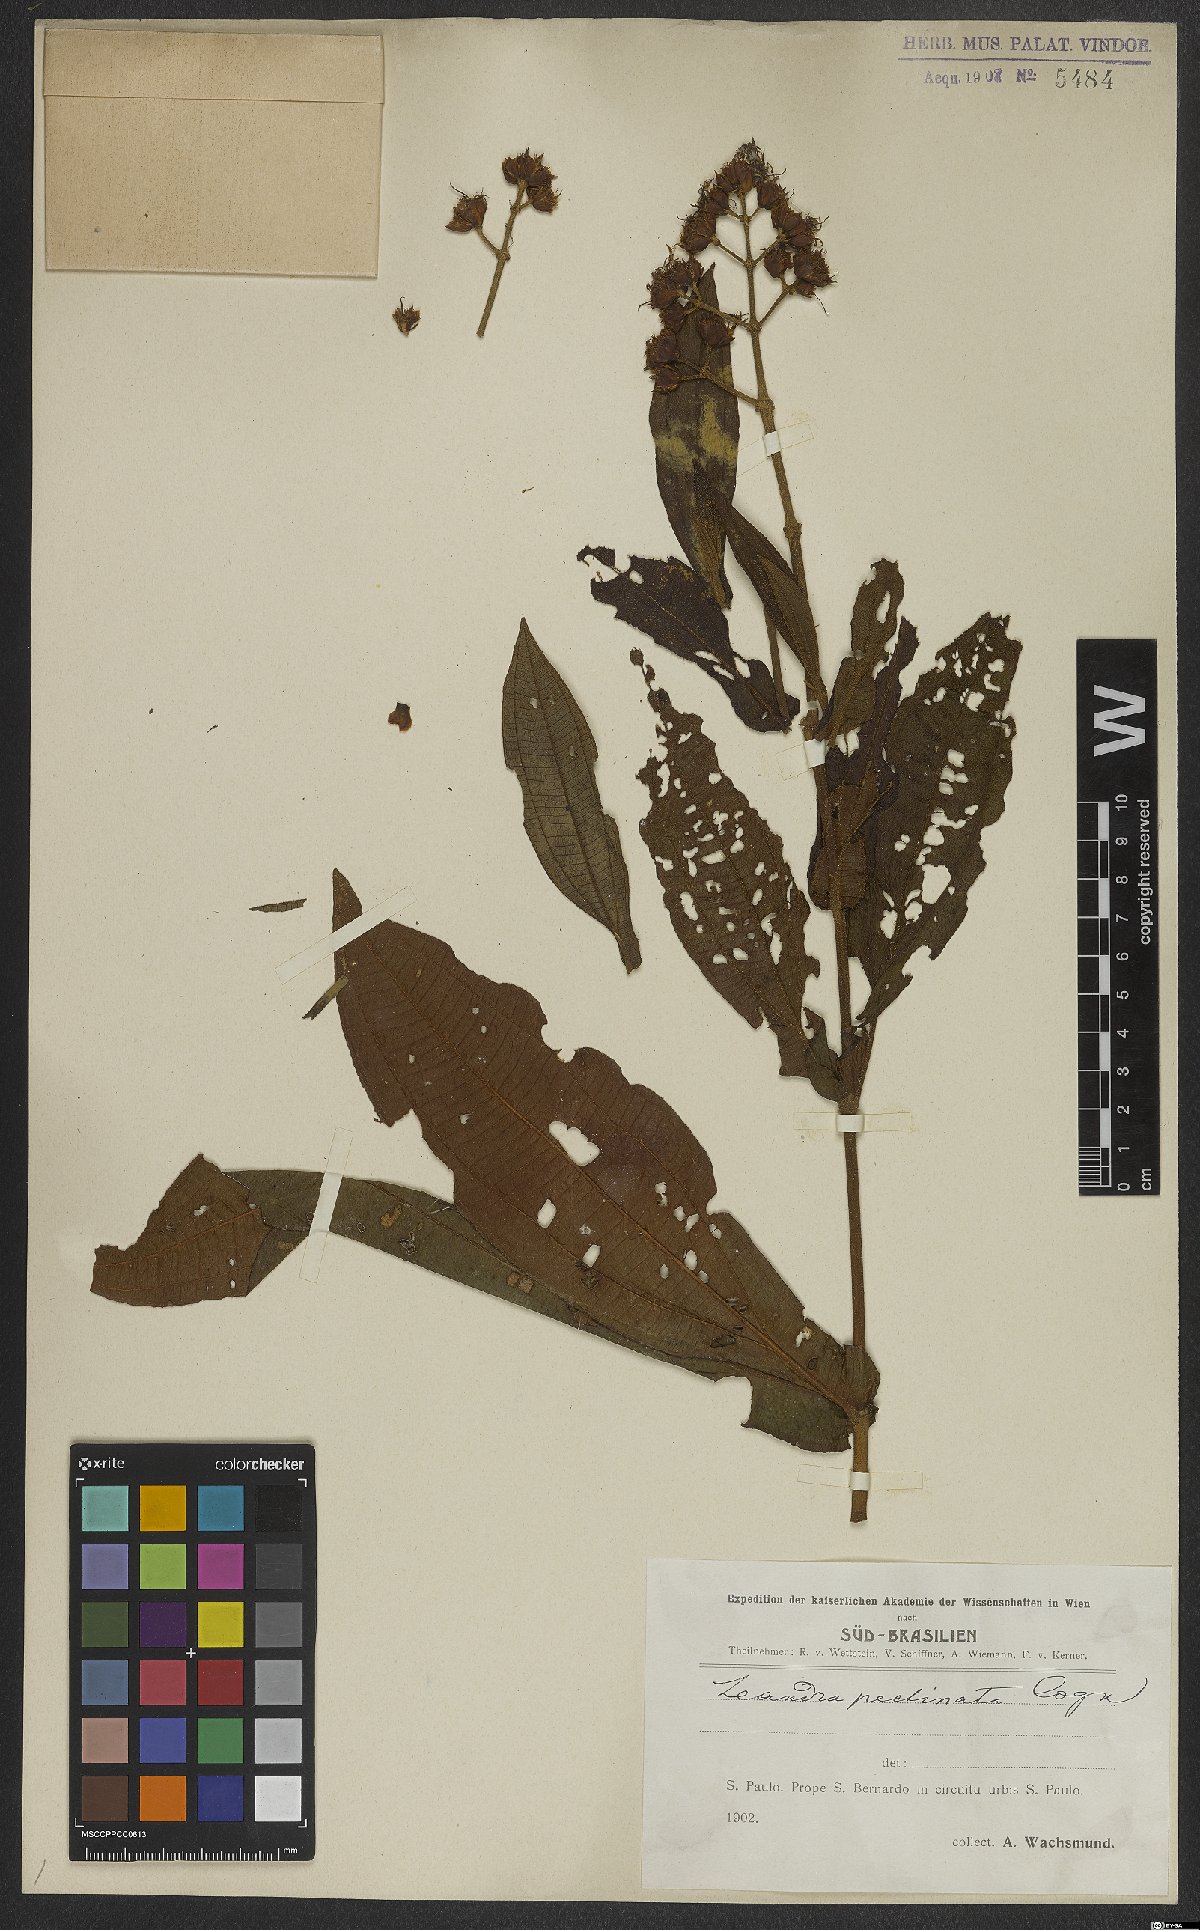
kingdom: Plantae
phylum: Tracheophyta
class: Magnoliopsida
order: Myrtales
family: Melastomataceae
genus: Miconia
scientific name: Miconia pectinata
